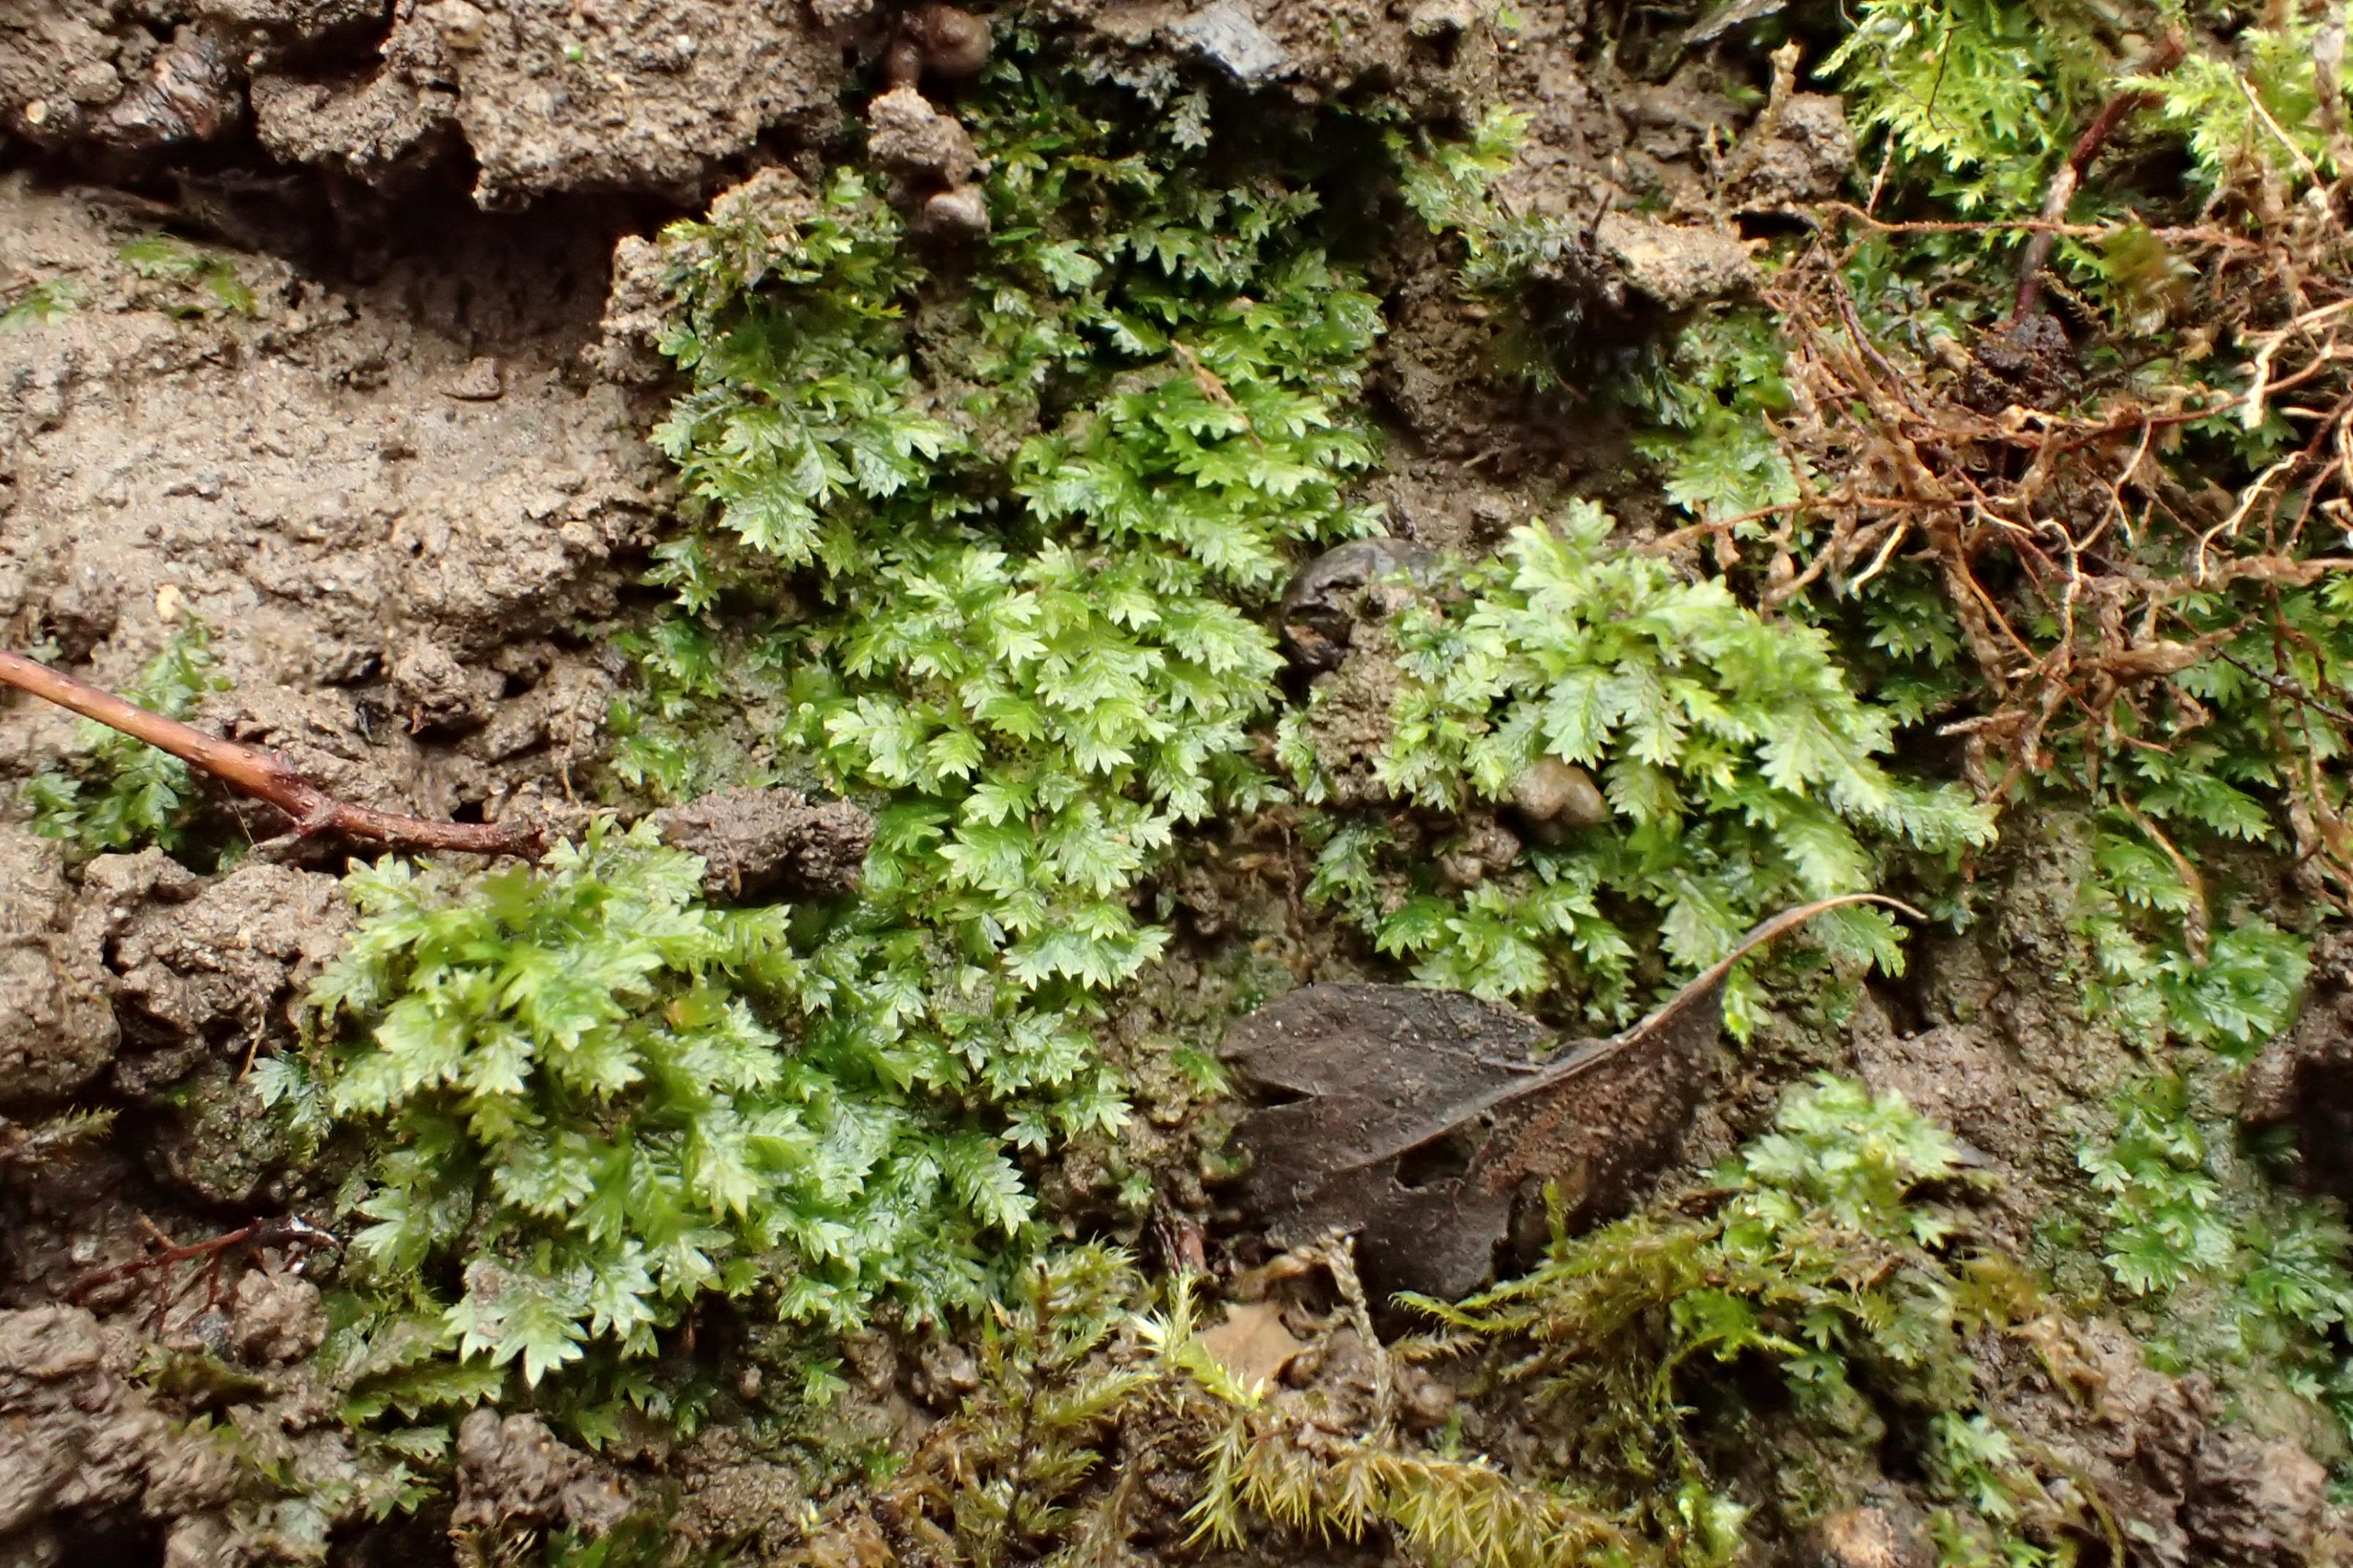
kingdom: Plantae
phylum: Bryophyta
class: Bryopsida
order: Dicranales
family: Fissidentaceae
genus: Fissidens
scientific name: Fissidens taxifolius
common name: Taksbladet rademos
